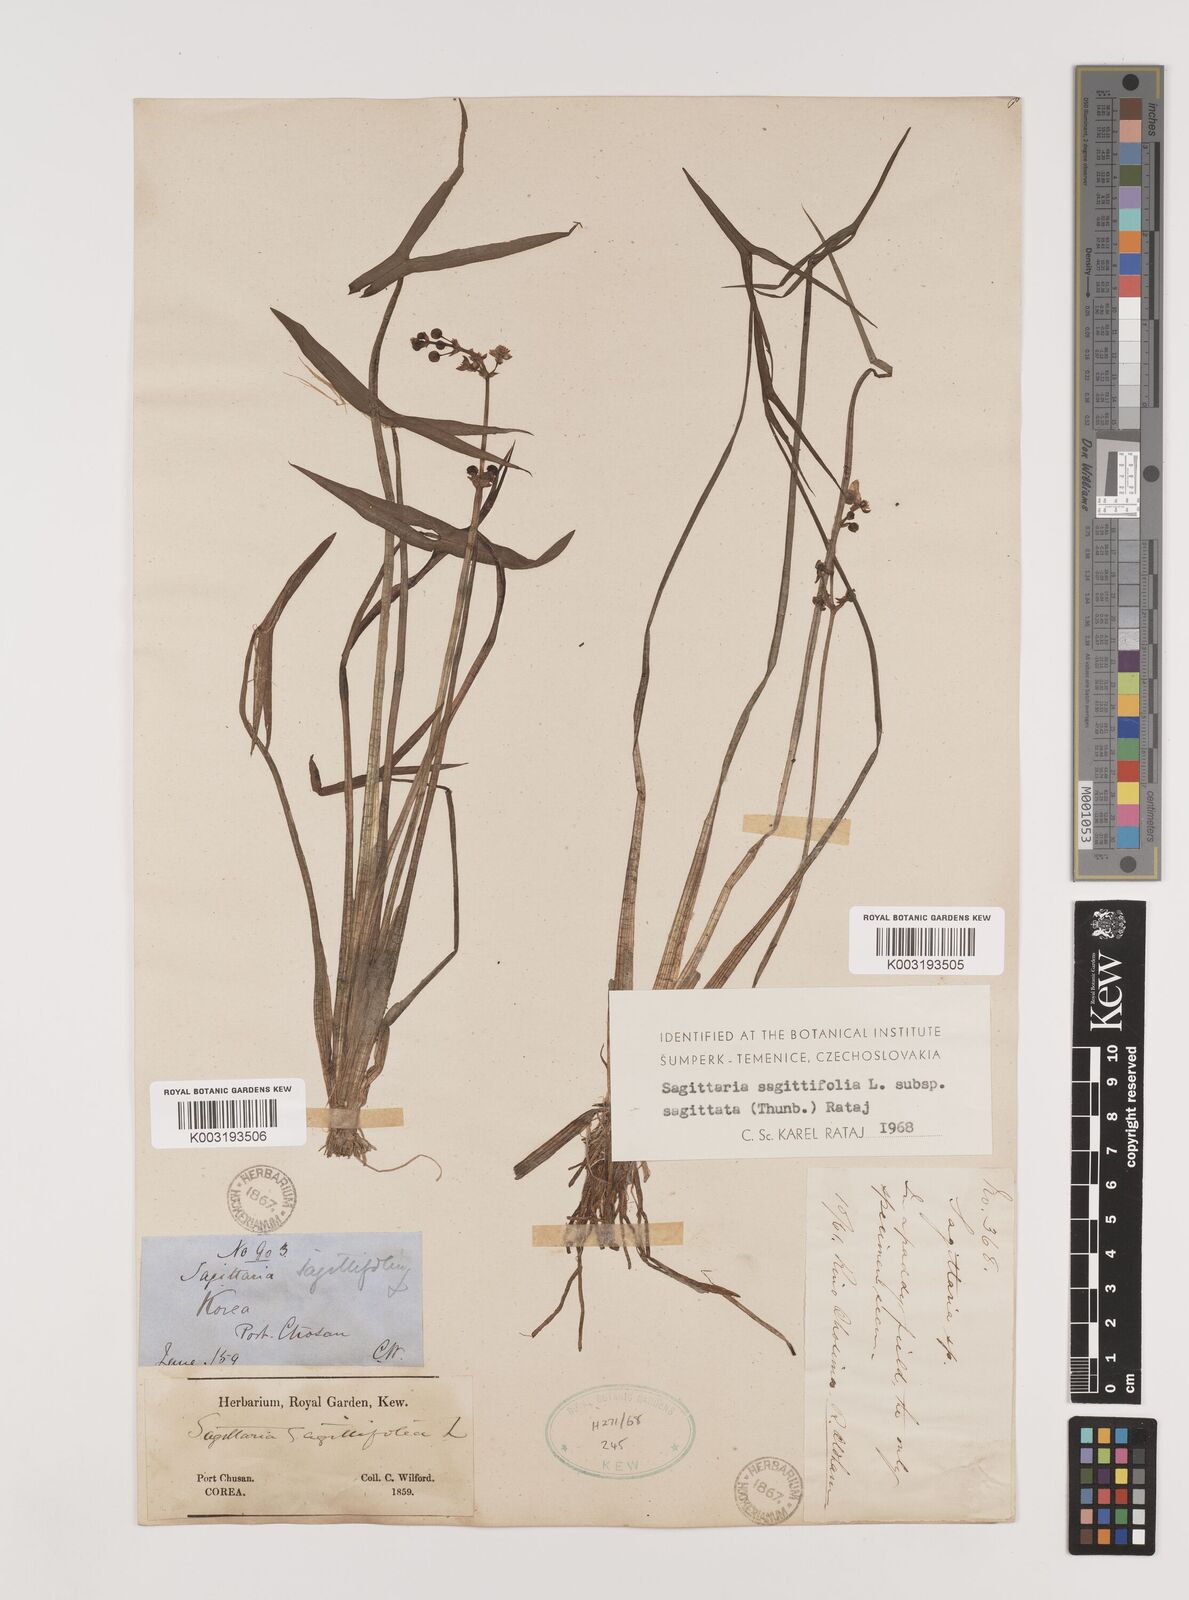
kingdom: Plantae
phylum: Tracheophyta
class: Liliopsida
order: Alismatales
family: Alismataceae
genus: Sagittaria
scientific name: Sagittaria sagittifolia
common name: Arrowhead
